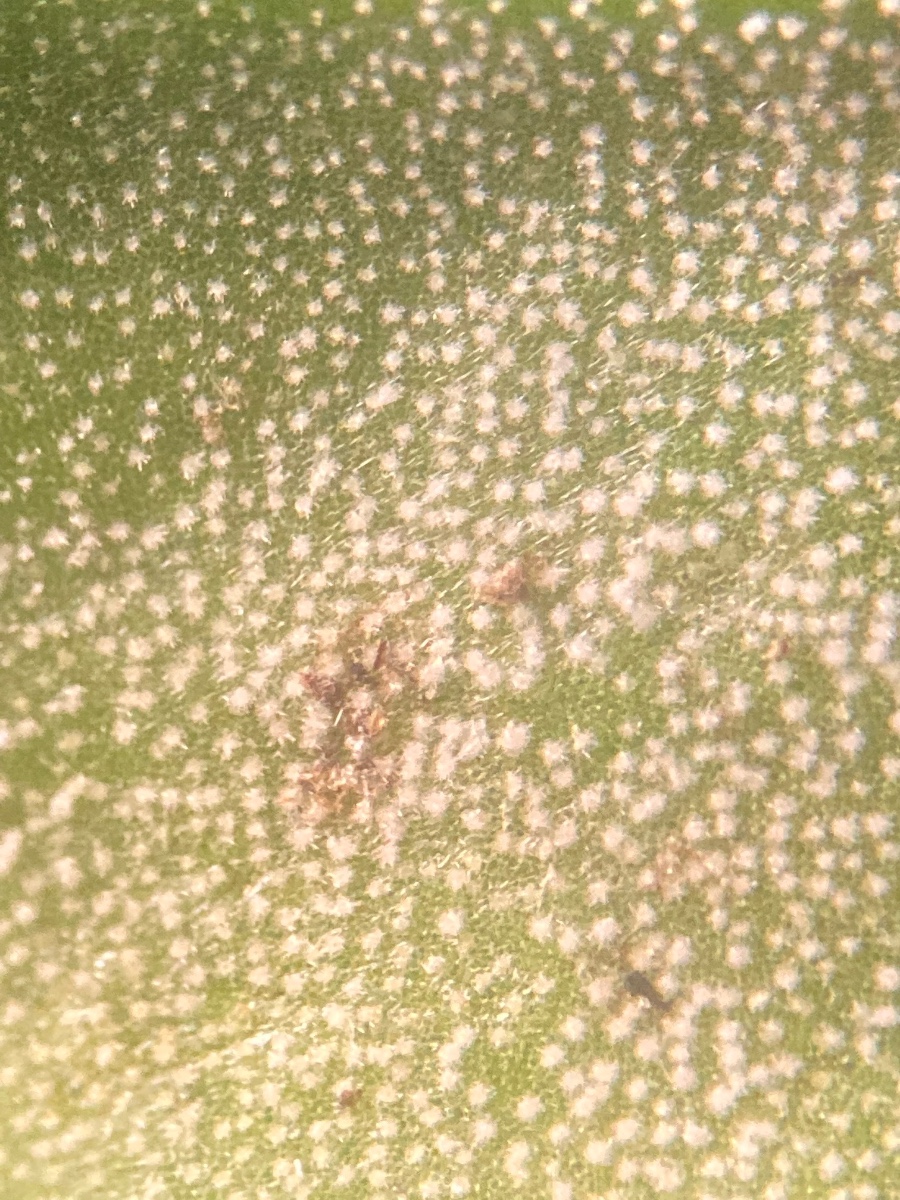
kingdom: Fungi
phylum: Ascomycota
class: Dothideomycetes
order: Mycosphaerellales
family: Mycosphaerellaceae
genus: Ramularia
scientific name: Ramularia asteris
